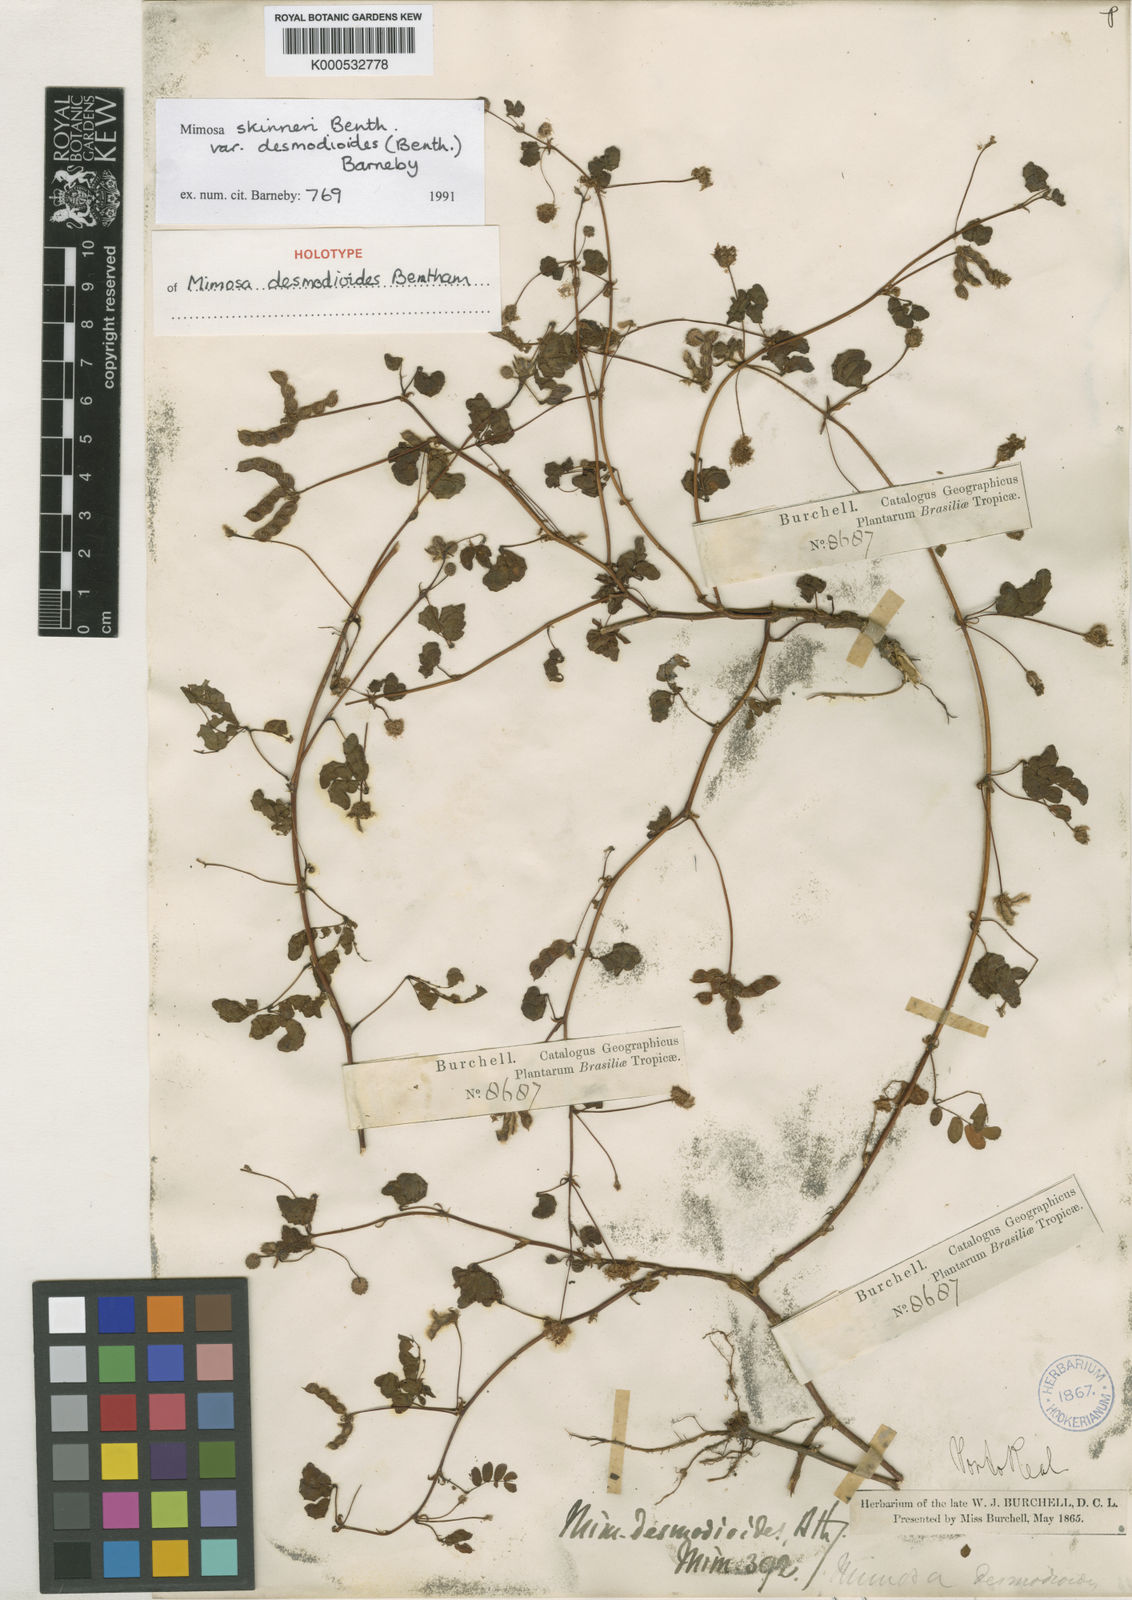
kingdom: Plantae
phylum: Tracheophyta
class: Magnoliopsida
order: Fabales
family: Fabaceae
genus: Mimosa
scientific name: Mimosa skinneri
